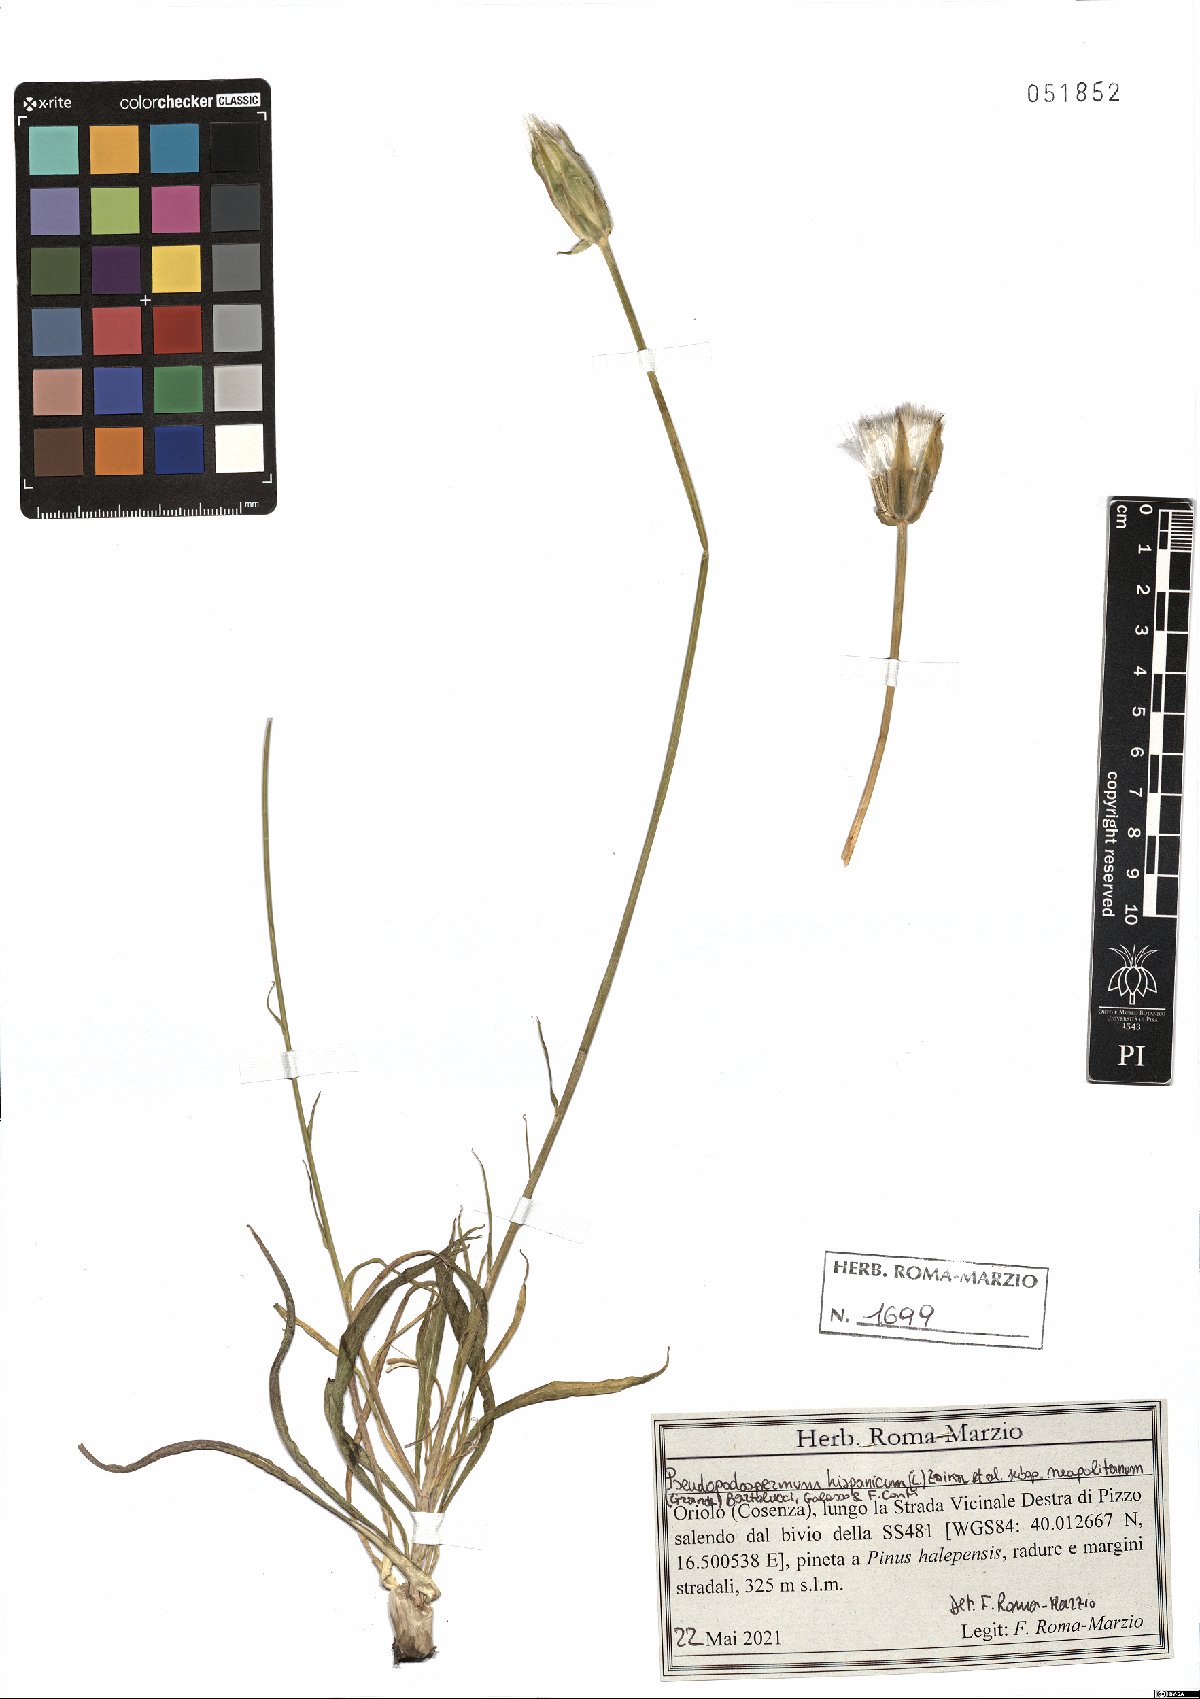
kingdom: Plantae
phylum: Tracheophyta
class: Magnoliopsida
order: Asterales
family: Asteraceae
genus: Pseudopodospermum
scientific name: Pseudopodospermum hispanicum
